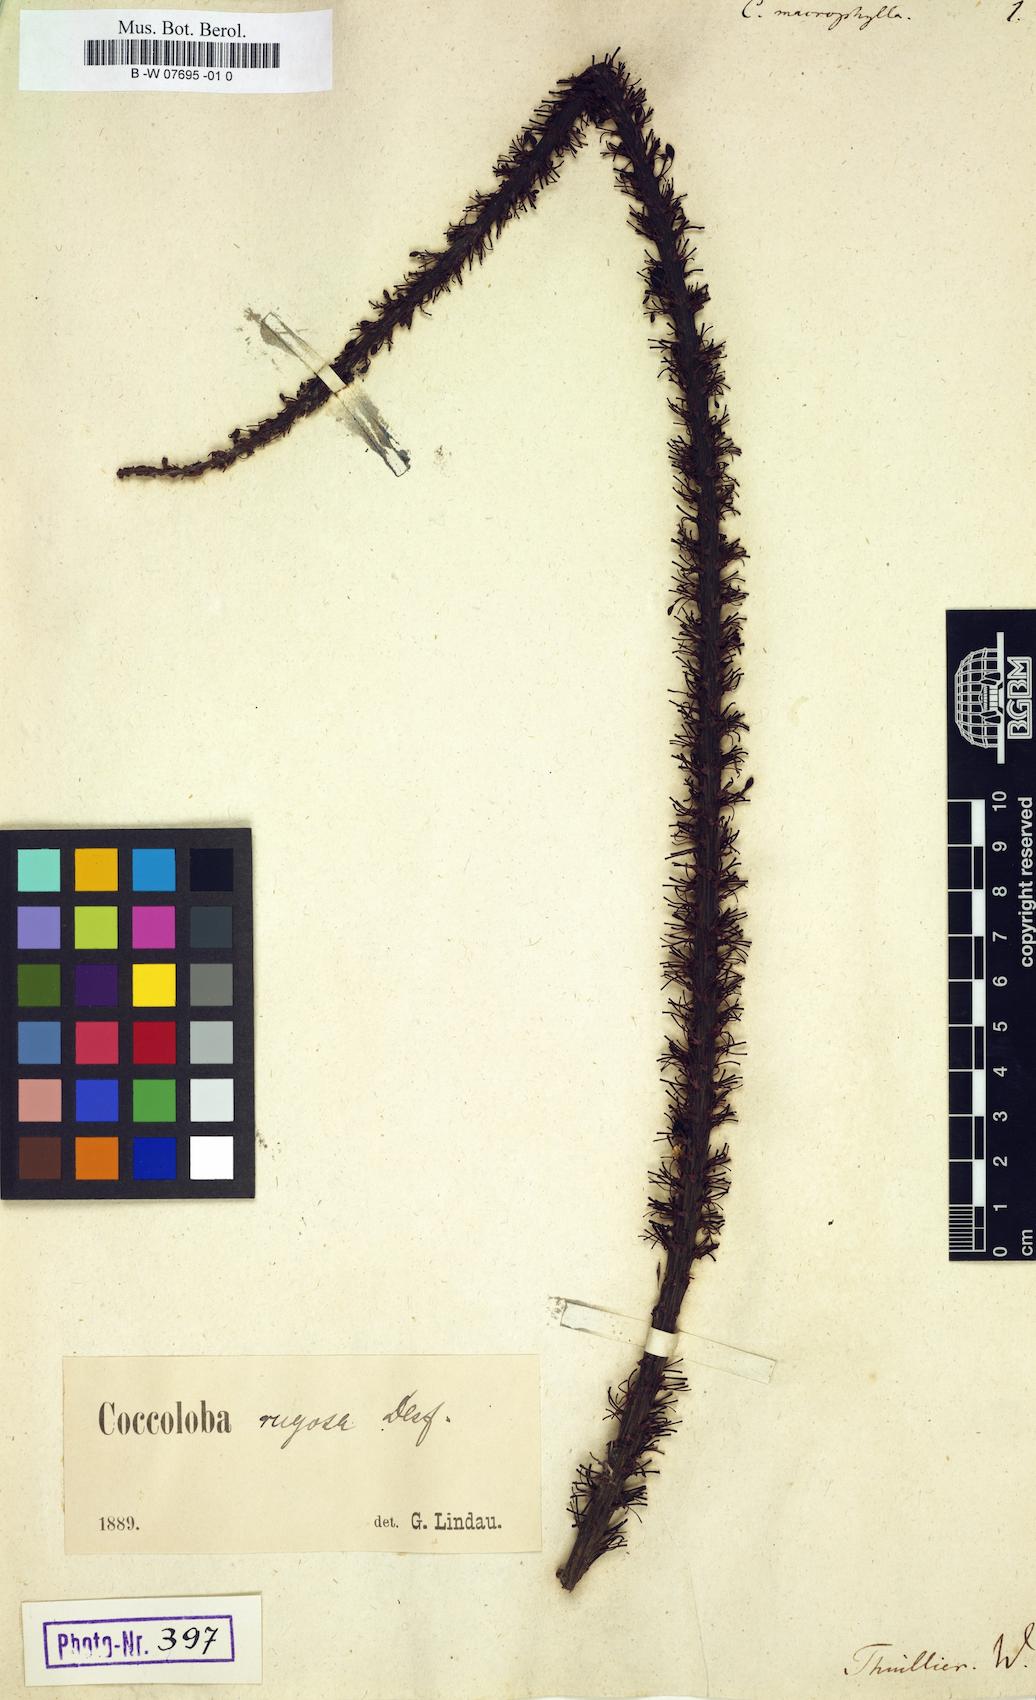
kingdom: Plantae
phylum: Tracheophyta
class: Magnoliopsida
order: Caryophyllales
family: Polygonaceae
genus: Coccoloba
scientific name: Coccoloba rugosa
